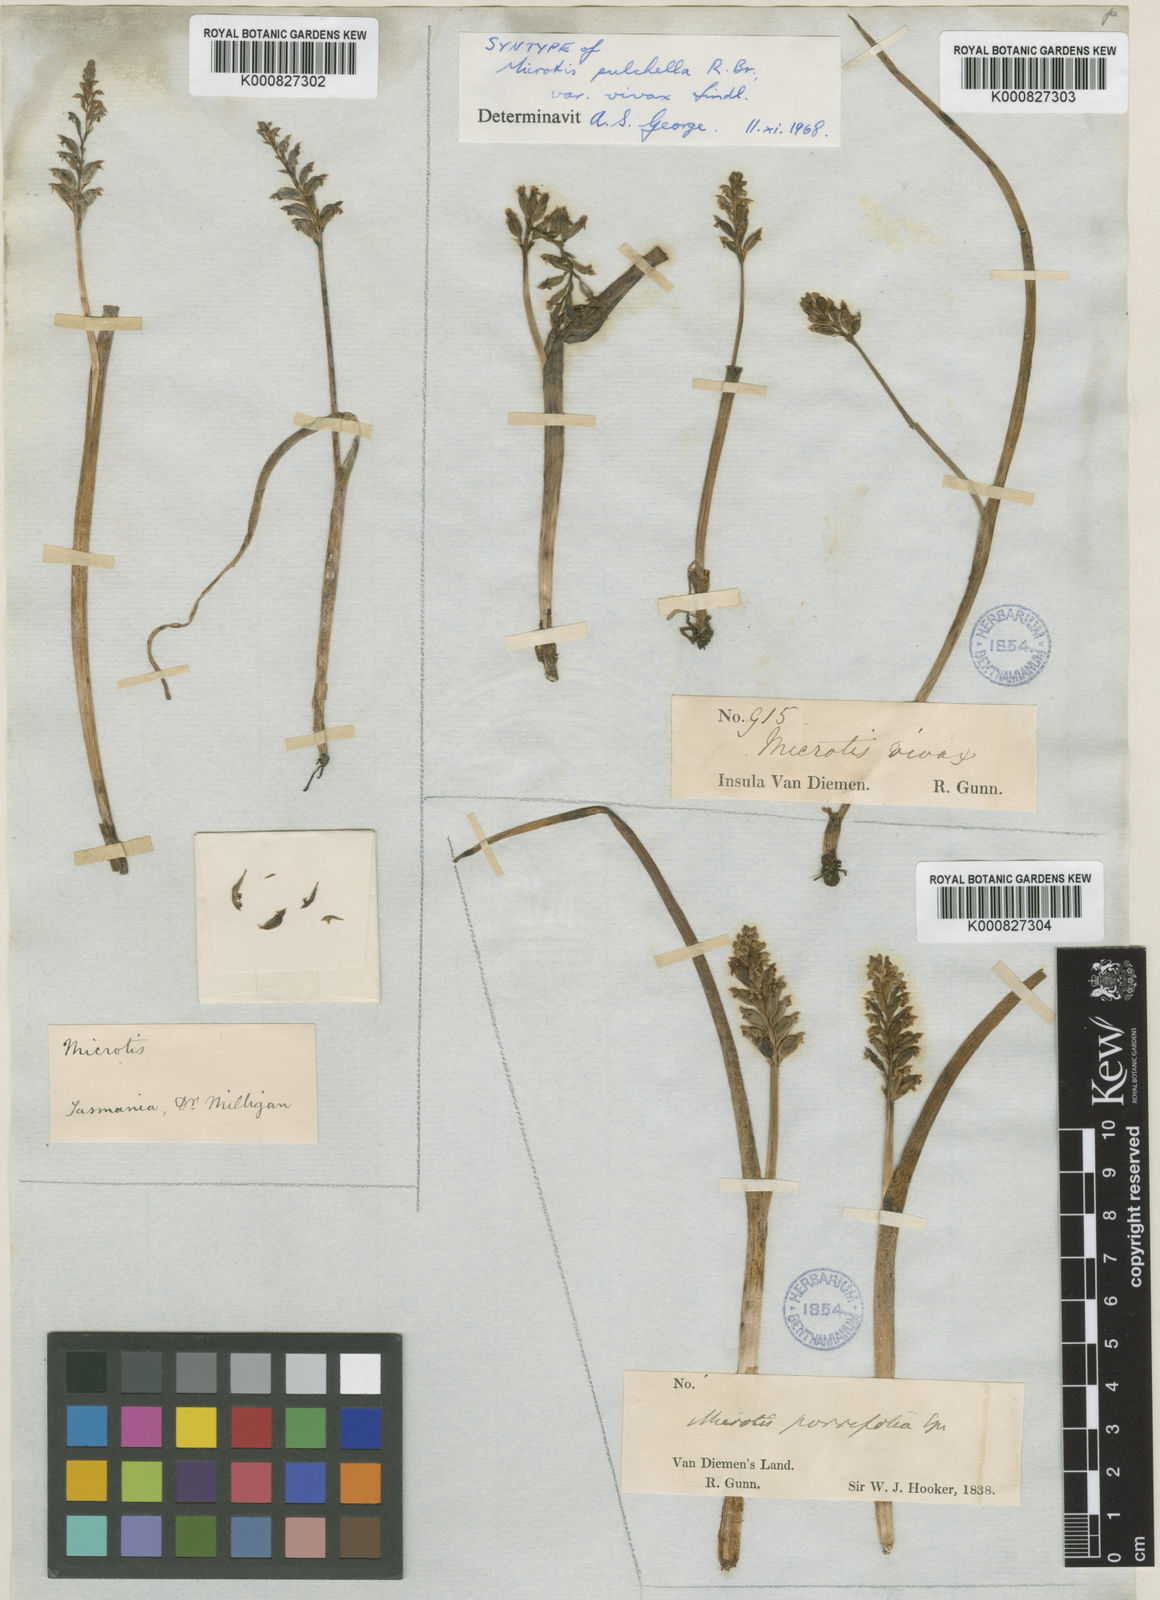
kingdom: Plantae
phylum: Tracheophyta
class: Liliopsida
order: Asparagales
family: Orchidaceae
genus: Microtis
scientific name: Microtis unifolia
